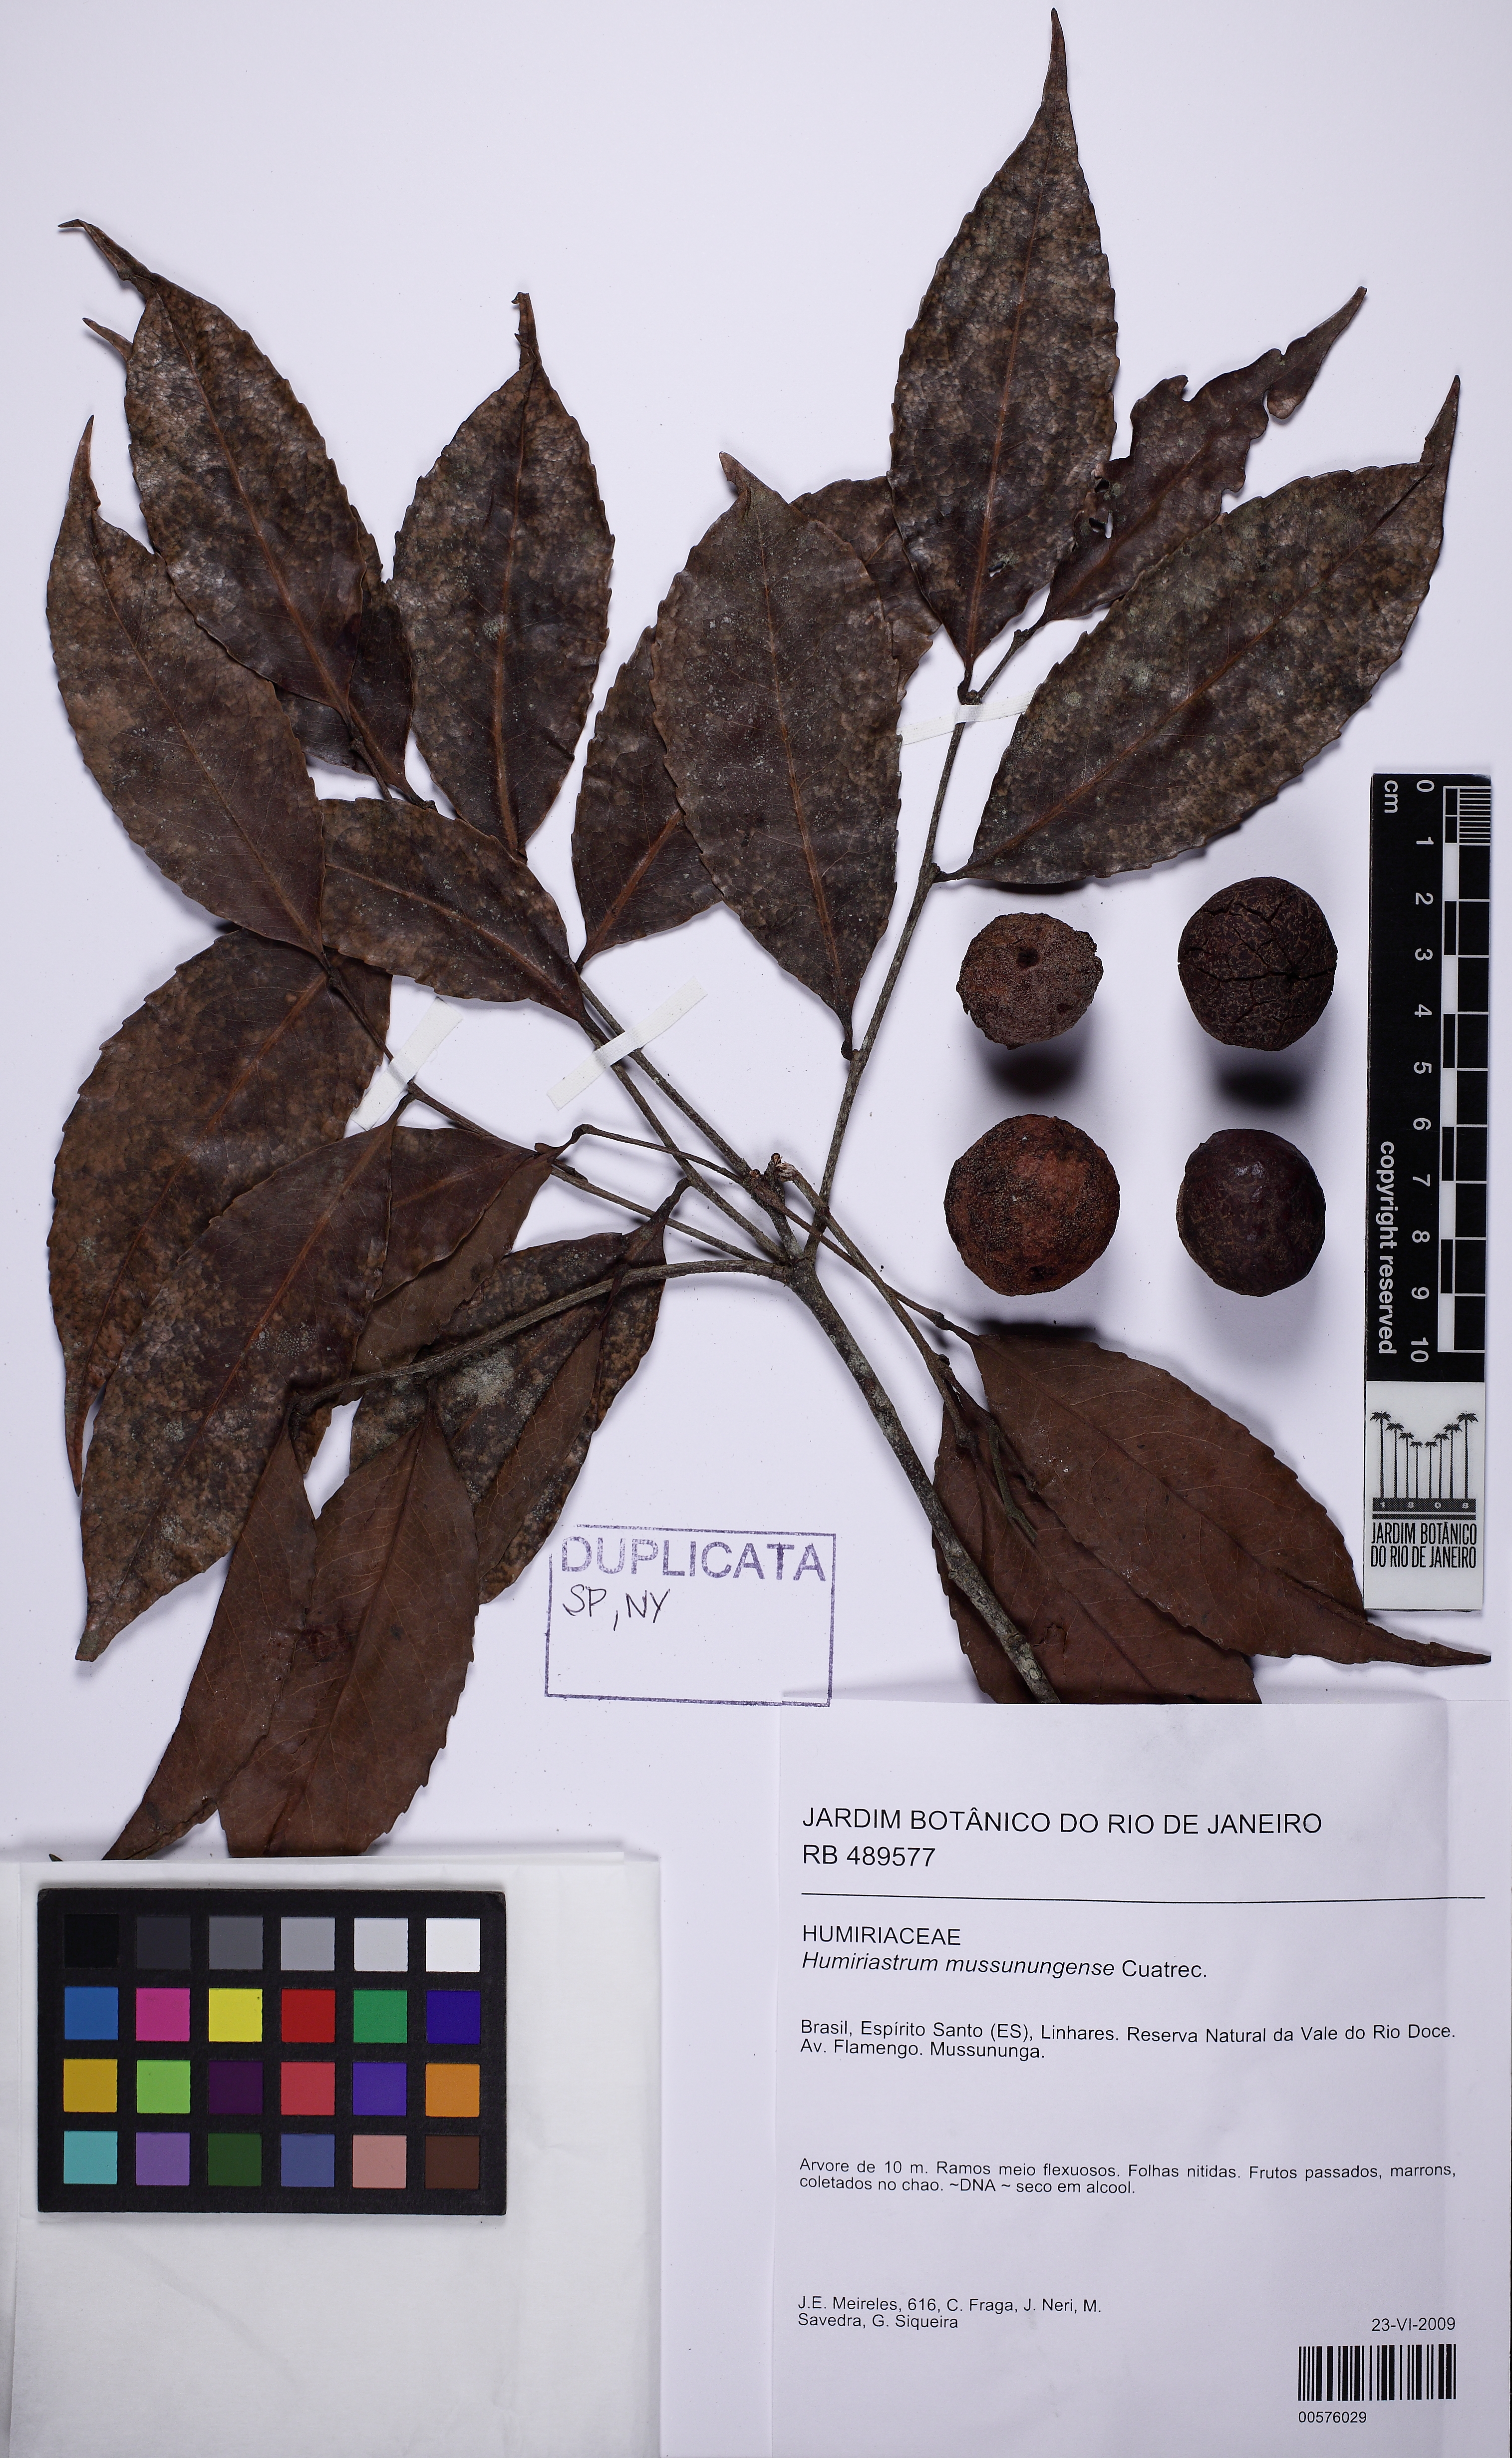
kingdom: Plantae
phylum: Tracheophyta
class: Magnoliopsida
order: Malpighiales
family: Humiriaceae
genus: Humiriastrum
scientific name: Humiriastrum mussunungense
